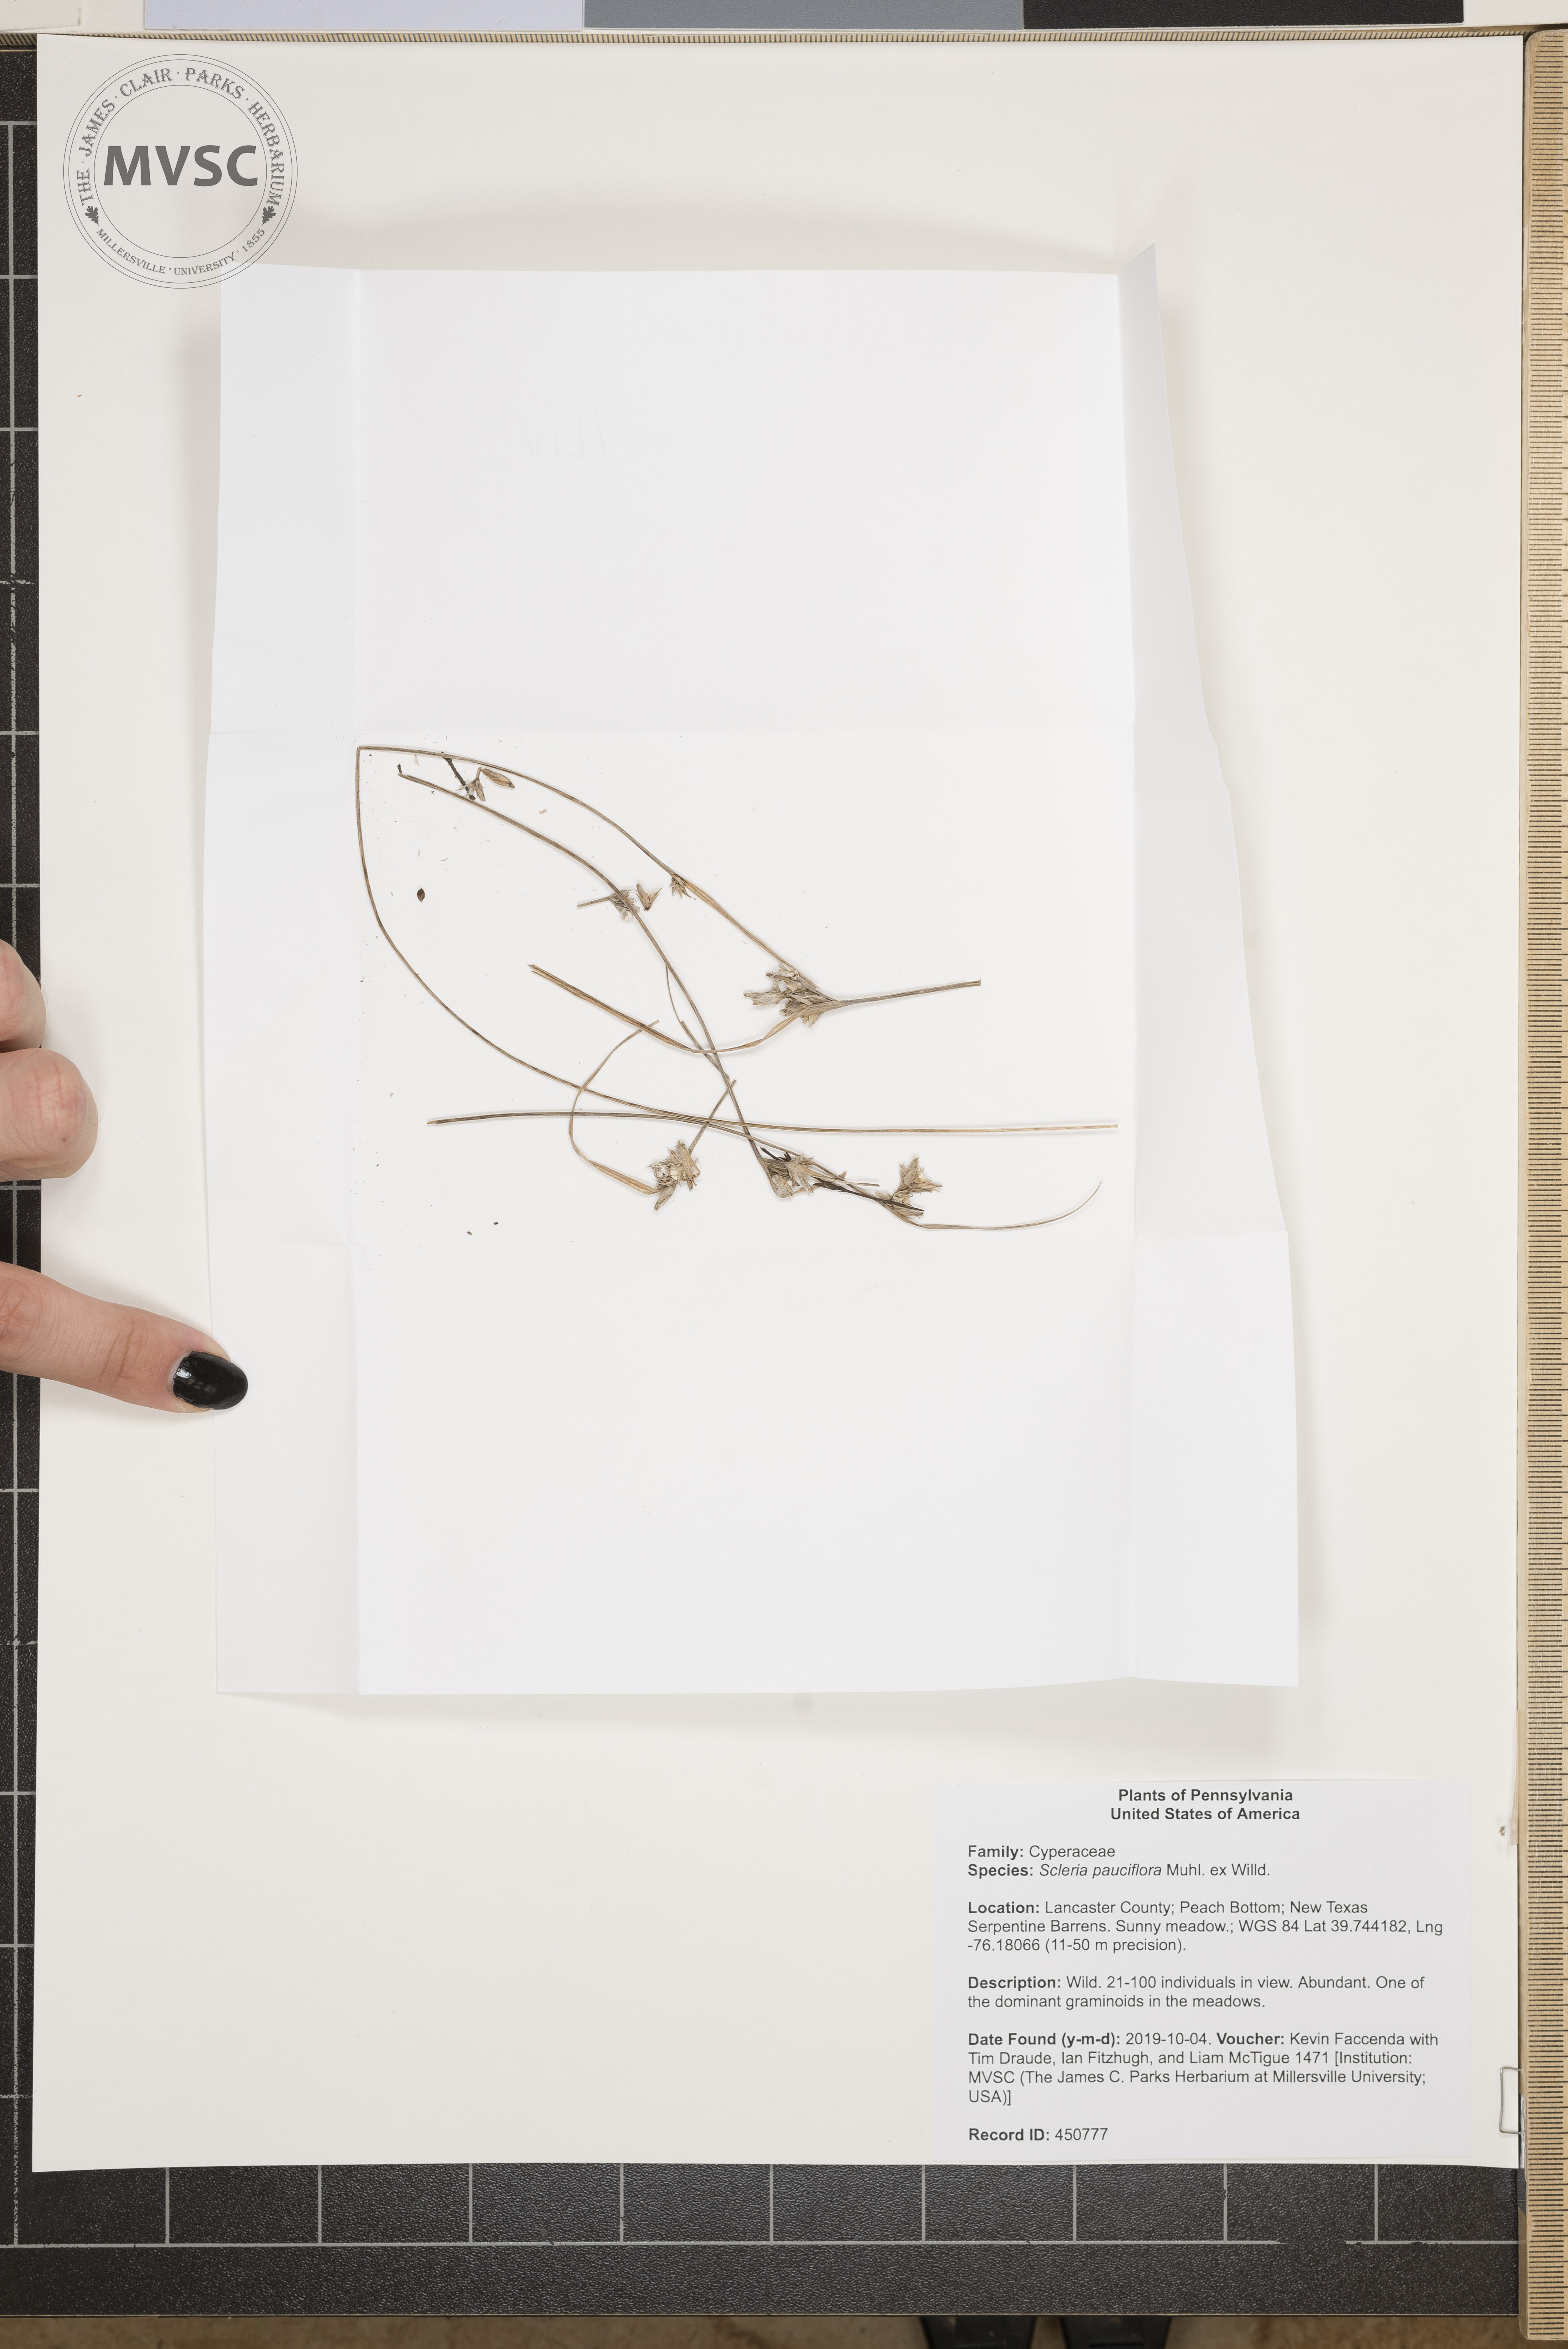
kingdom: Plantae
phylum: Tracheophyta
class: Liliopsida
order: Poales
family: Cyperaceae
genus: Scleria
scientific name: Scleria pauciflora
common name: Few-flowered nutrush
